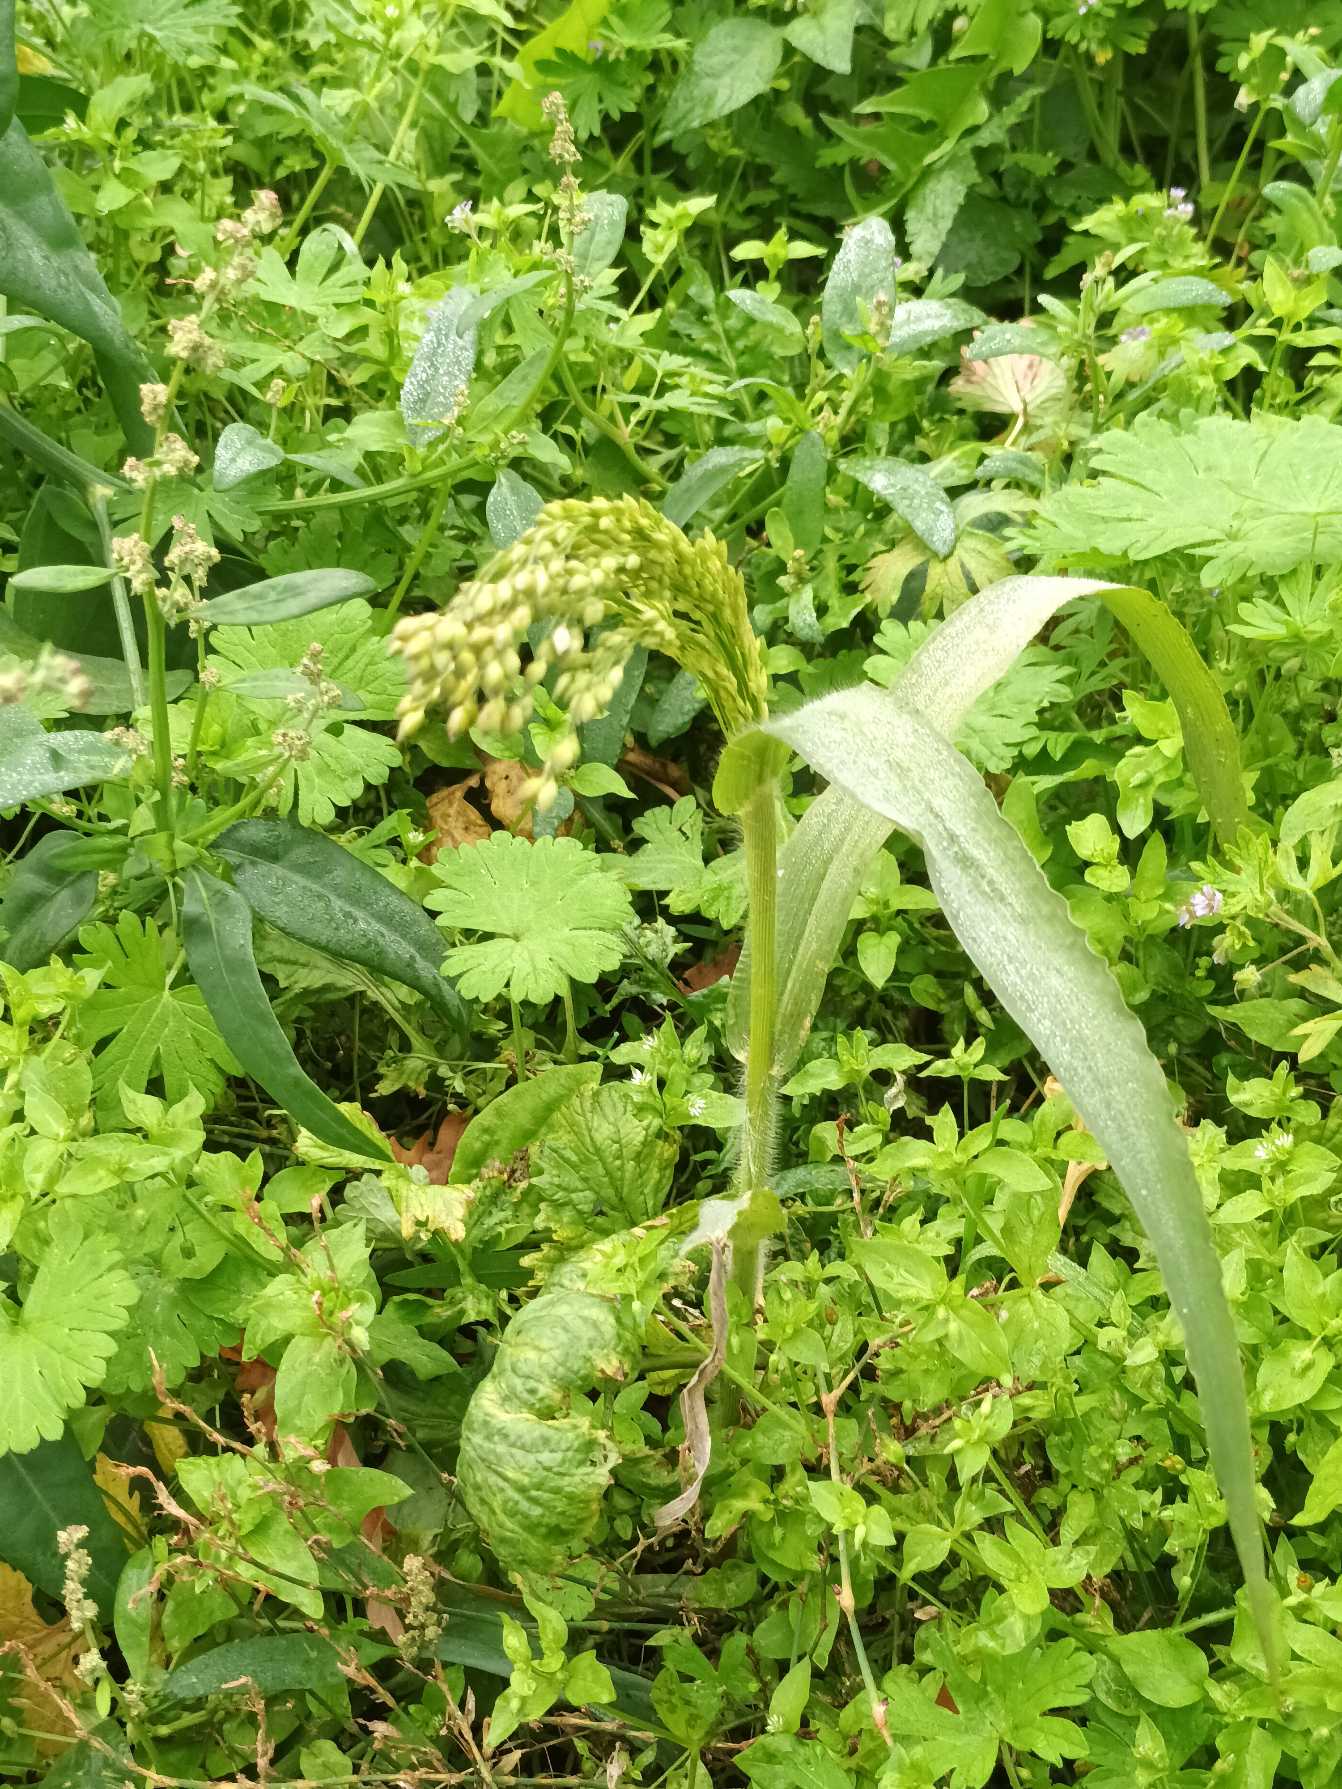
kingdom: Plantae
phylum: Tracheophyta
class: Liliopsida
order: Poales
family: Poaceae
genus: Panicum
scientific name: Panicum miliaceum
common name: Almindelig hirse
